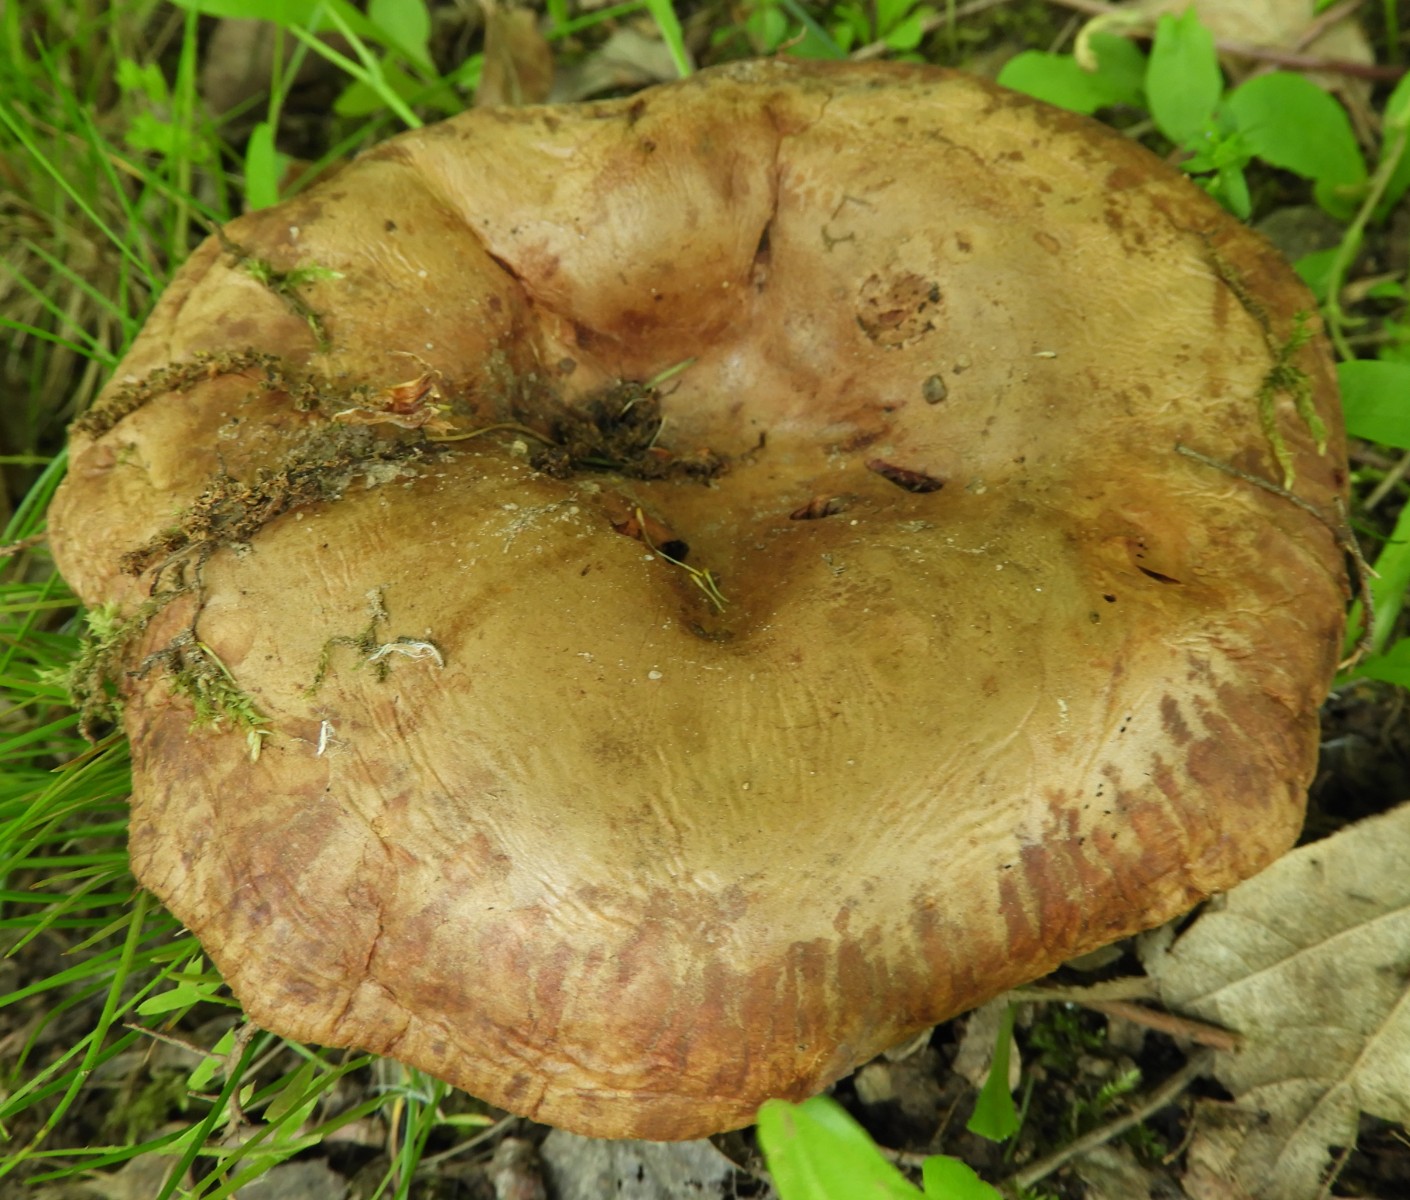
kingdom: Fungi
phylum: Basidiomycota
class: Agaricomycetes
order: Boletales
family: Paxillaceae
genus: Paxillus
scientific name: Paxillus obscurisporus
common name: mahognisporet netbladhat
